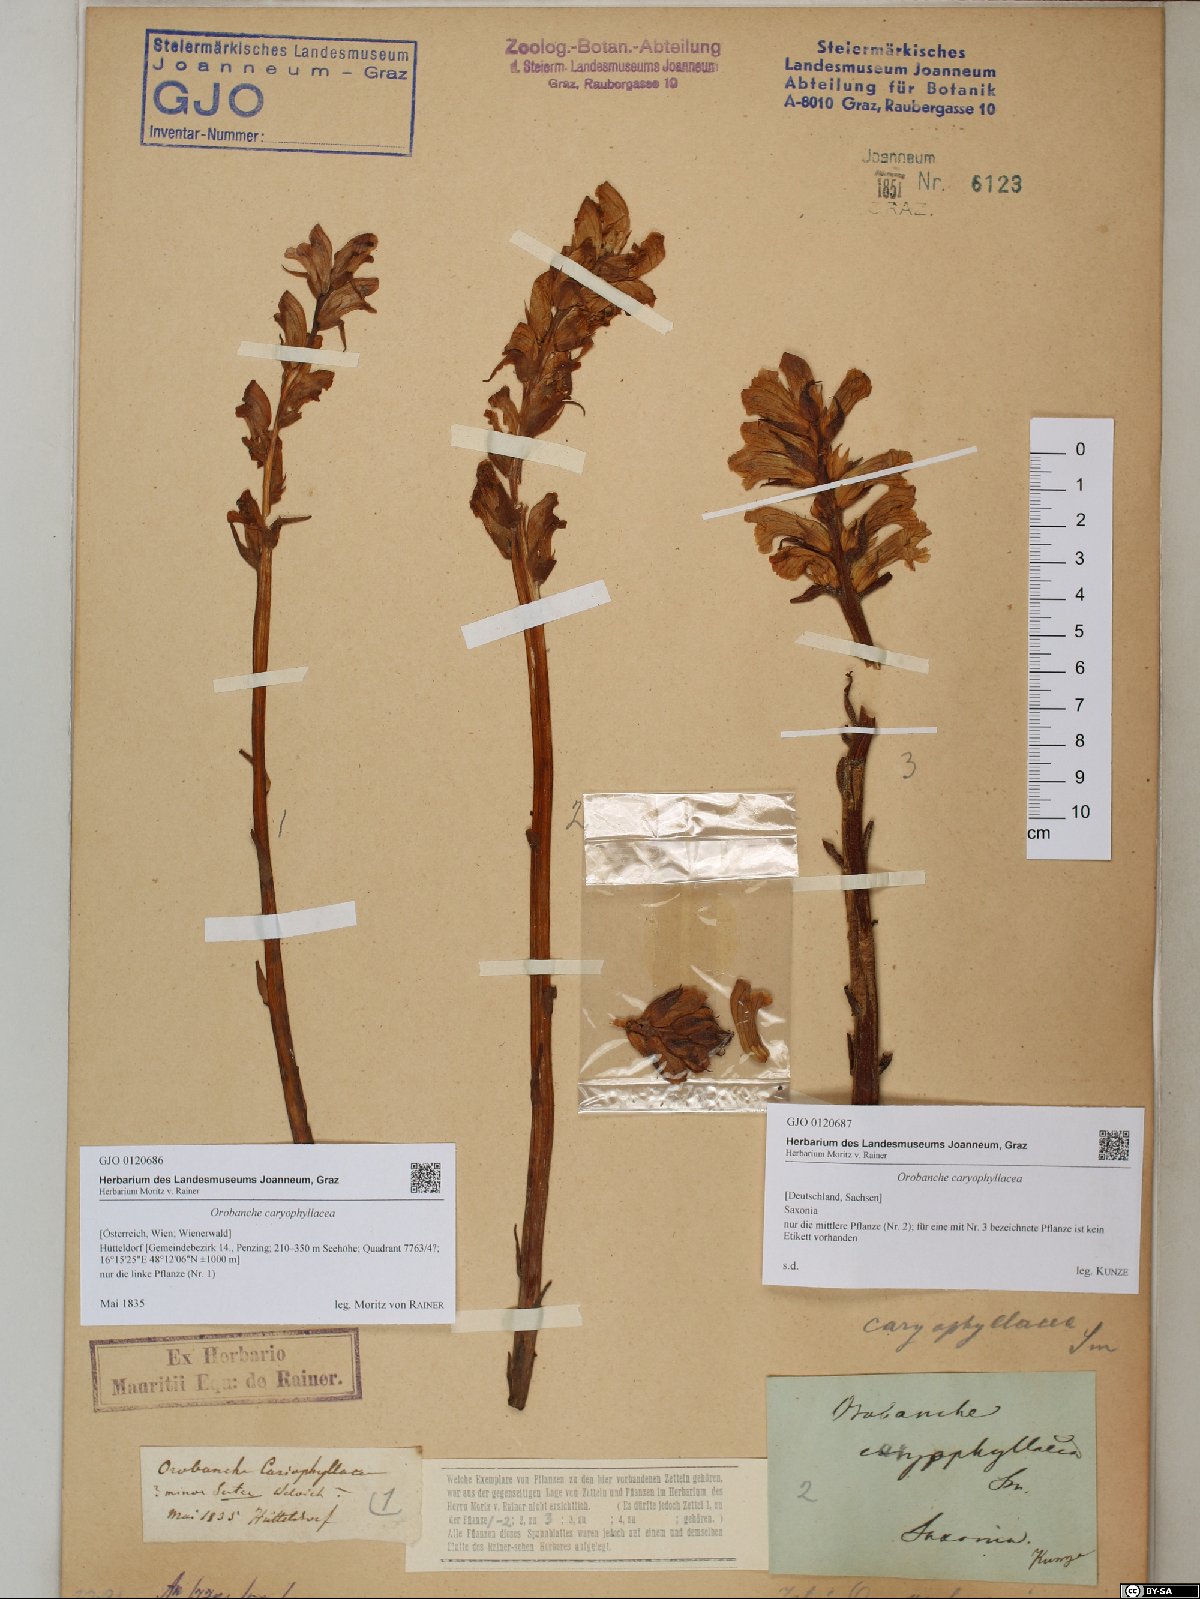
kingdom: Plantae
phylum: Tracheophyta
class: Magnoliopsida
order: Lamiales
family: Orobanchaceae
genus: Orobanche
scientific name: Orobanche caryophyllacea
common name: Bedstraw broomrape
